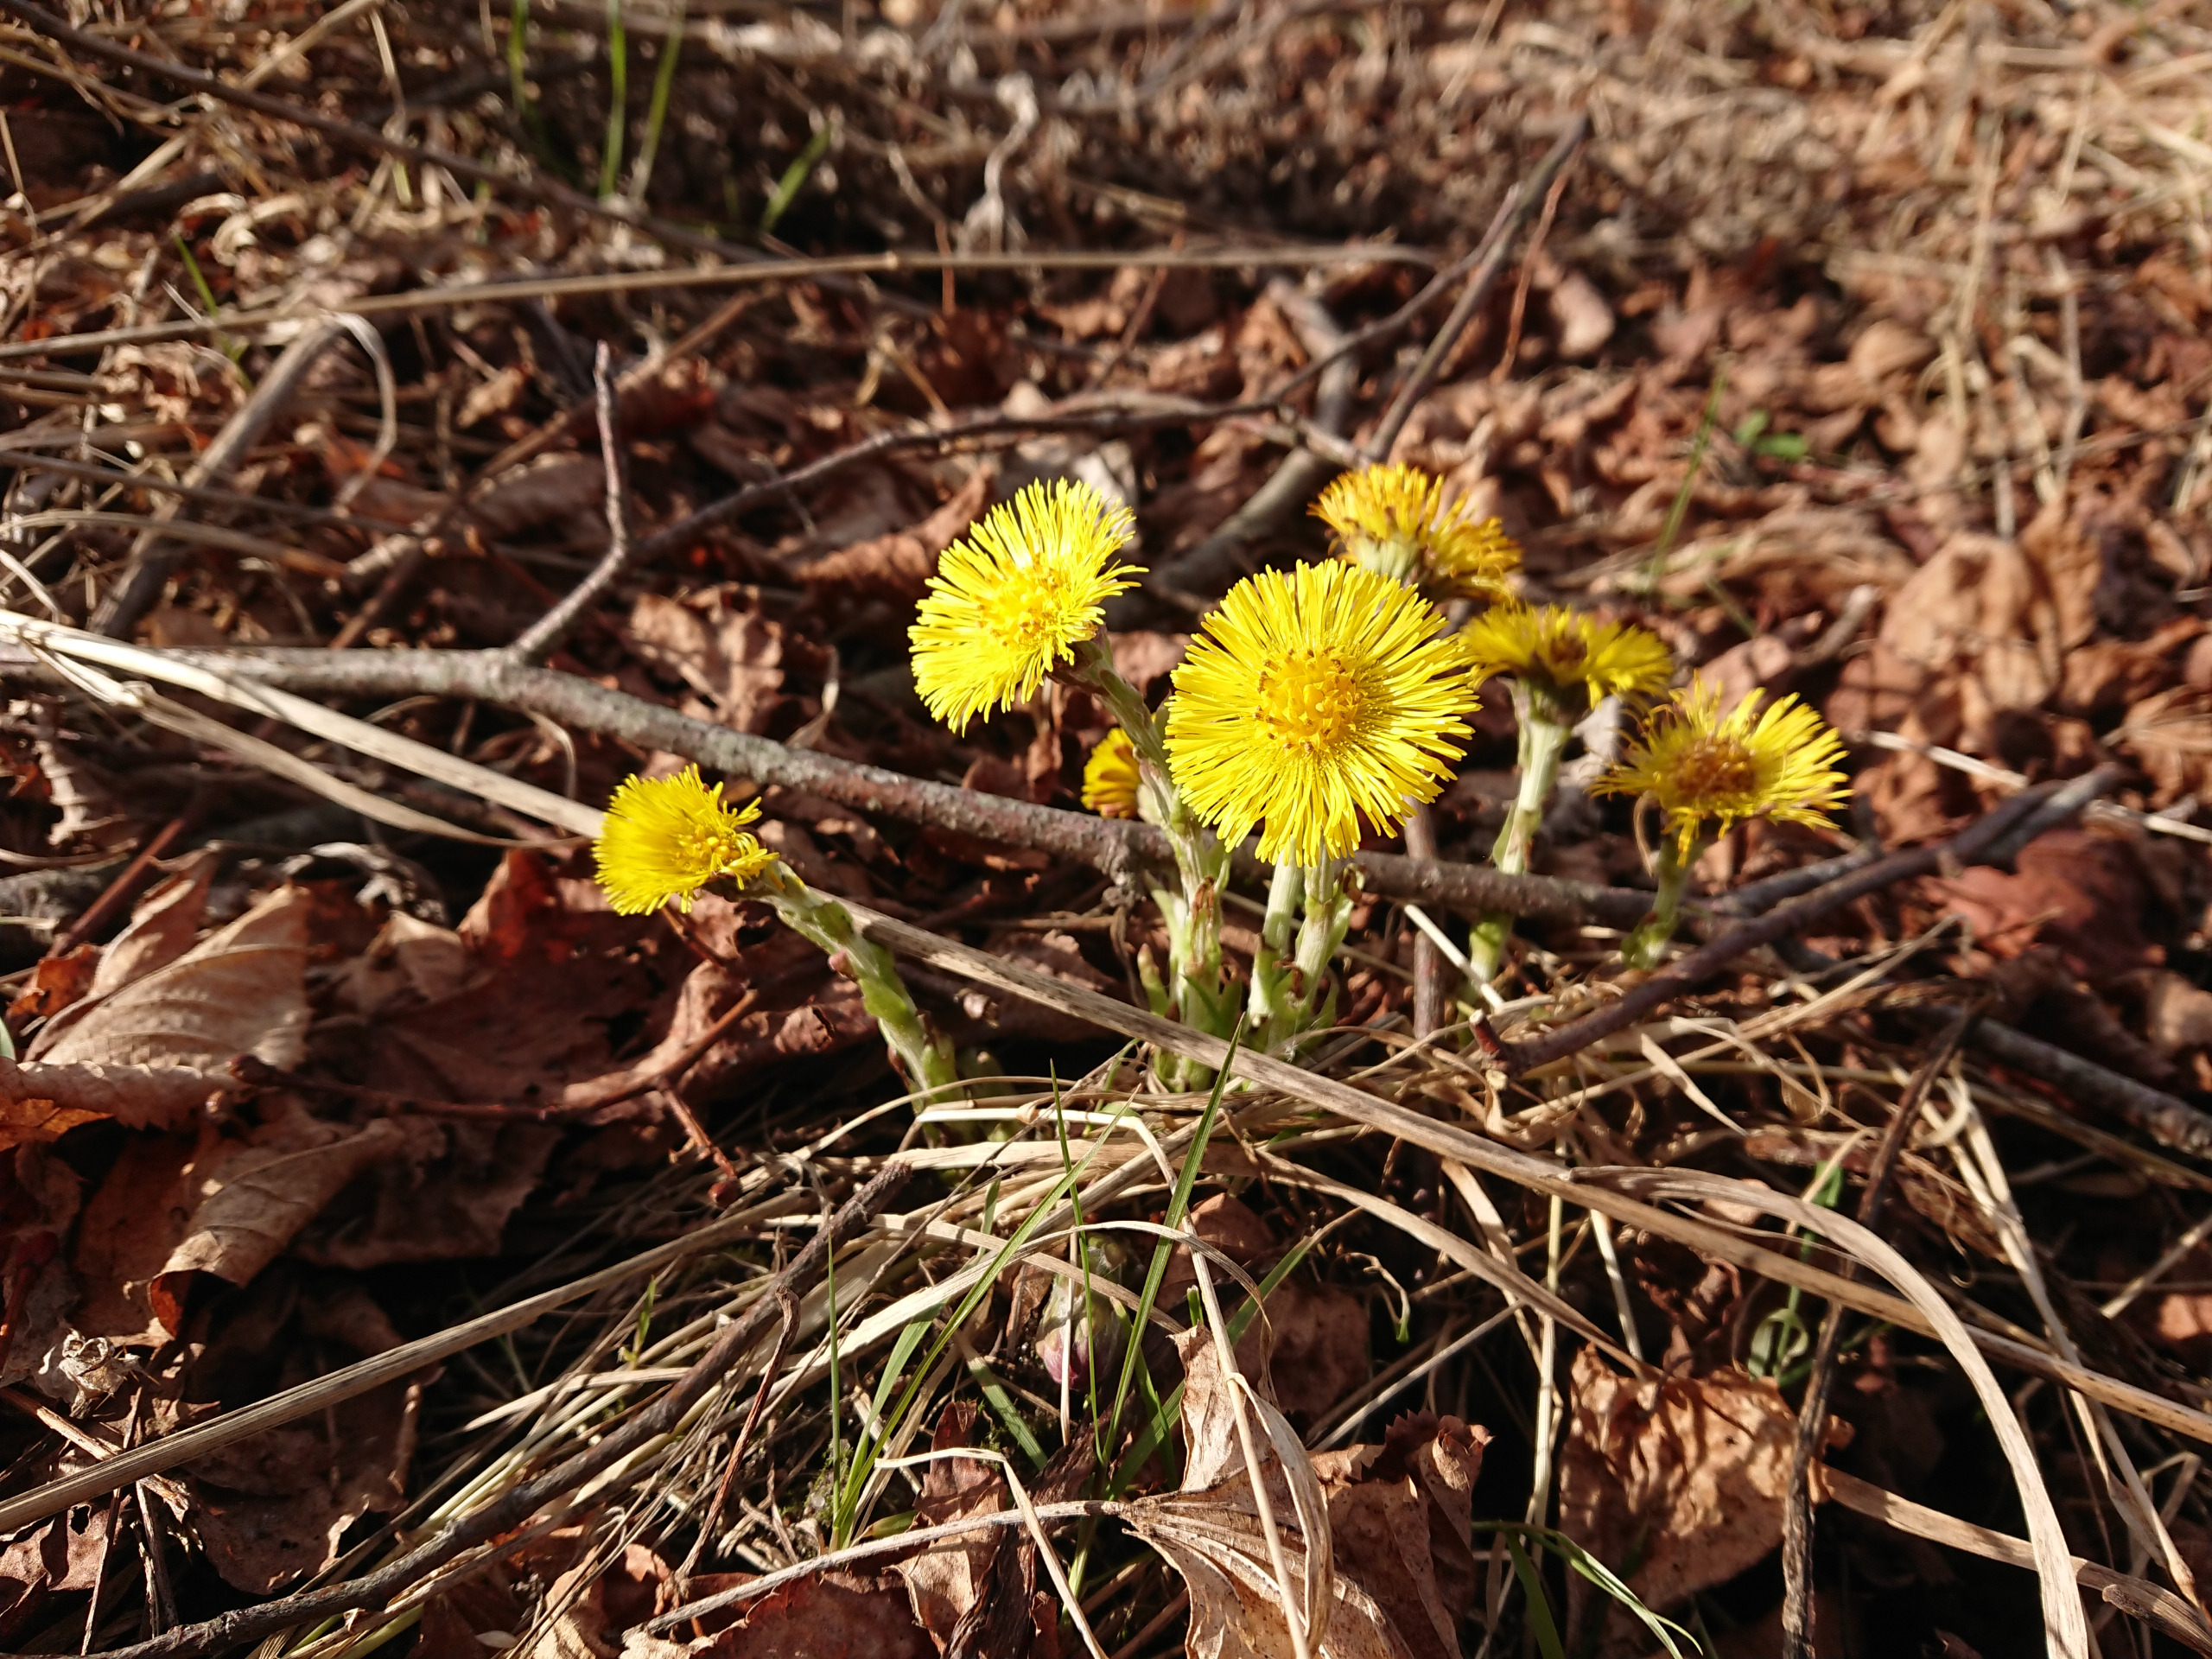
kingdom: Plantae
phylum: Tracheophyta
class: Magnoliopsida
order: Asterales
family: Asteraceae
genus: Tussilago
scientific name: Tussilago farfara
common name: Følfod
